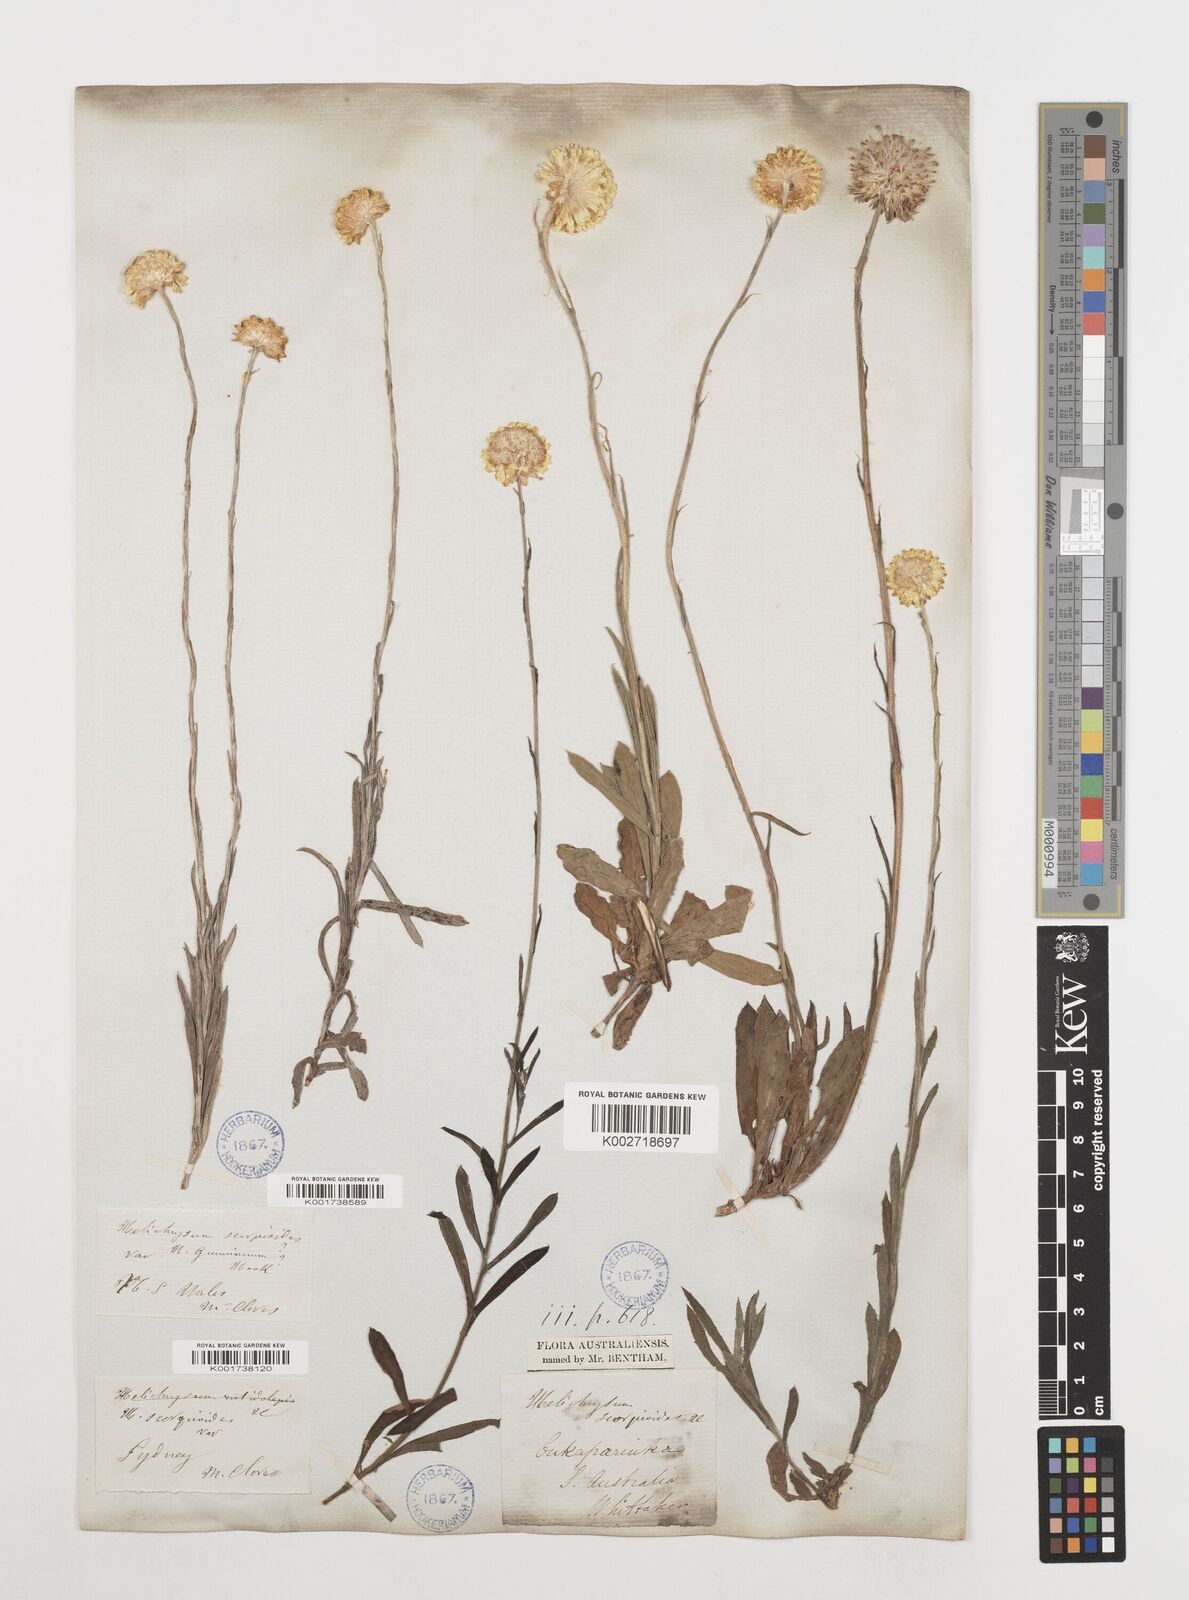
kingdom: Plantae
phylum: Tracheophyta
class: Magnoliopsida
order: Asterales
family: Asteraceae
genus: Coronidium
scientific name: Coronidium scorpioides
